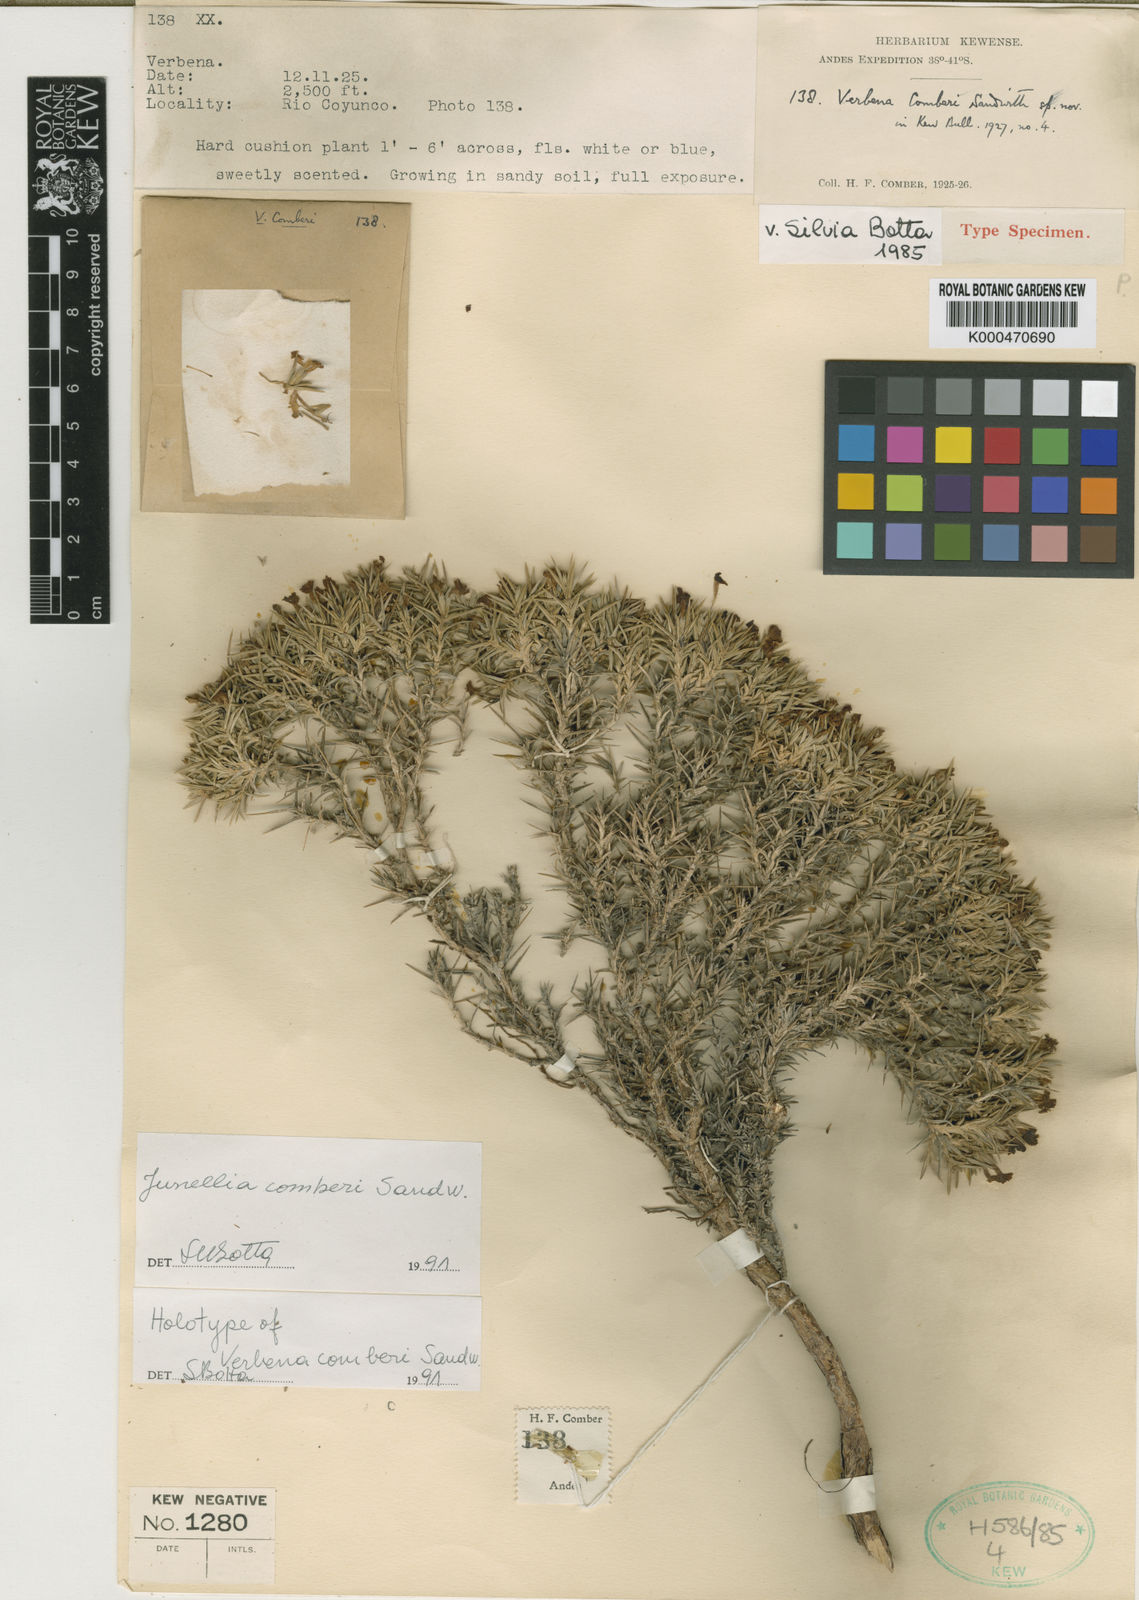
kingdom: Plantae
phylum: Tracheophyta
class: Magnoliopsida
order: Lamiales
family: Verbenaceae
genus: Junellia
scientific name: Junellia caespitosa
